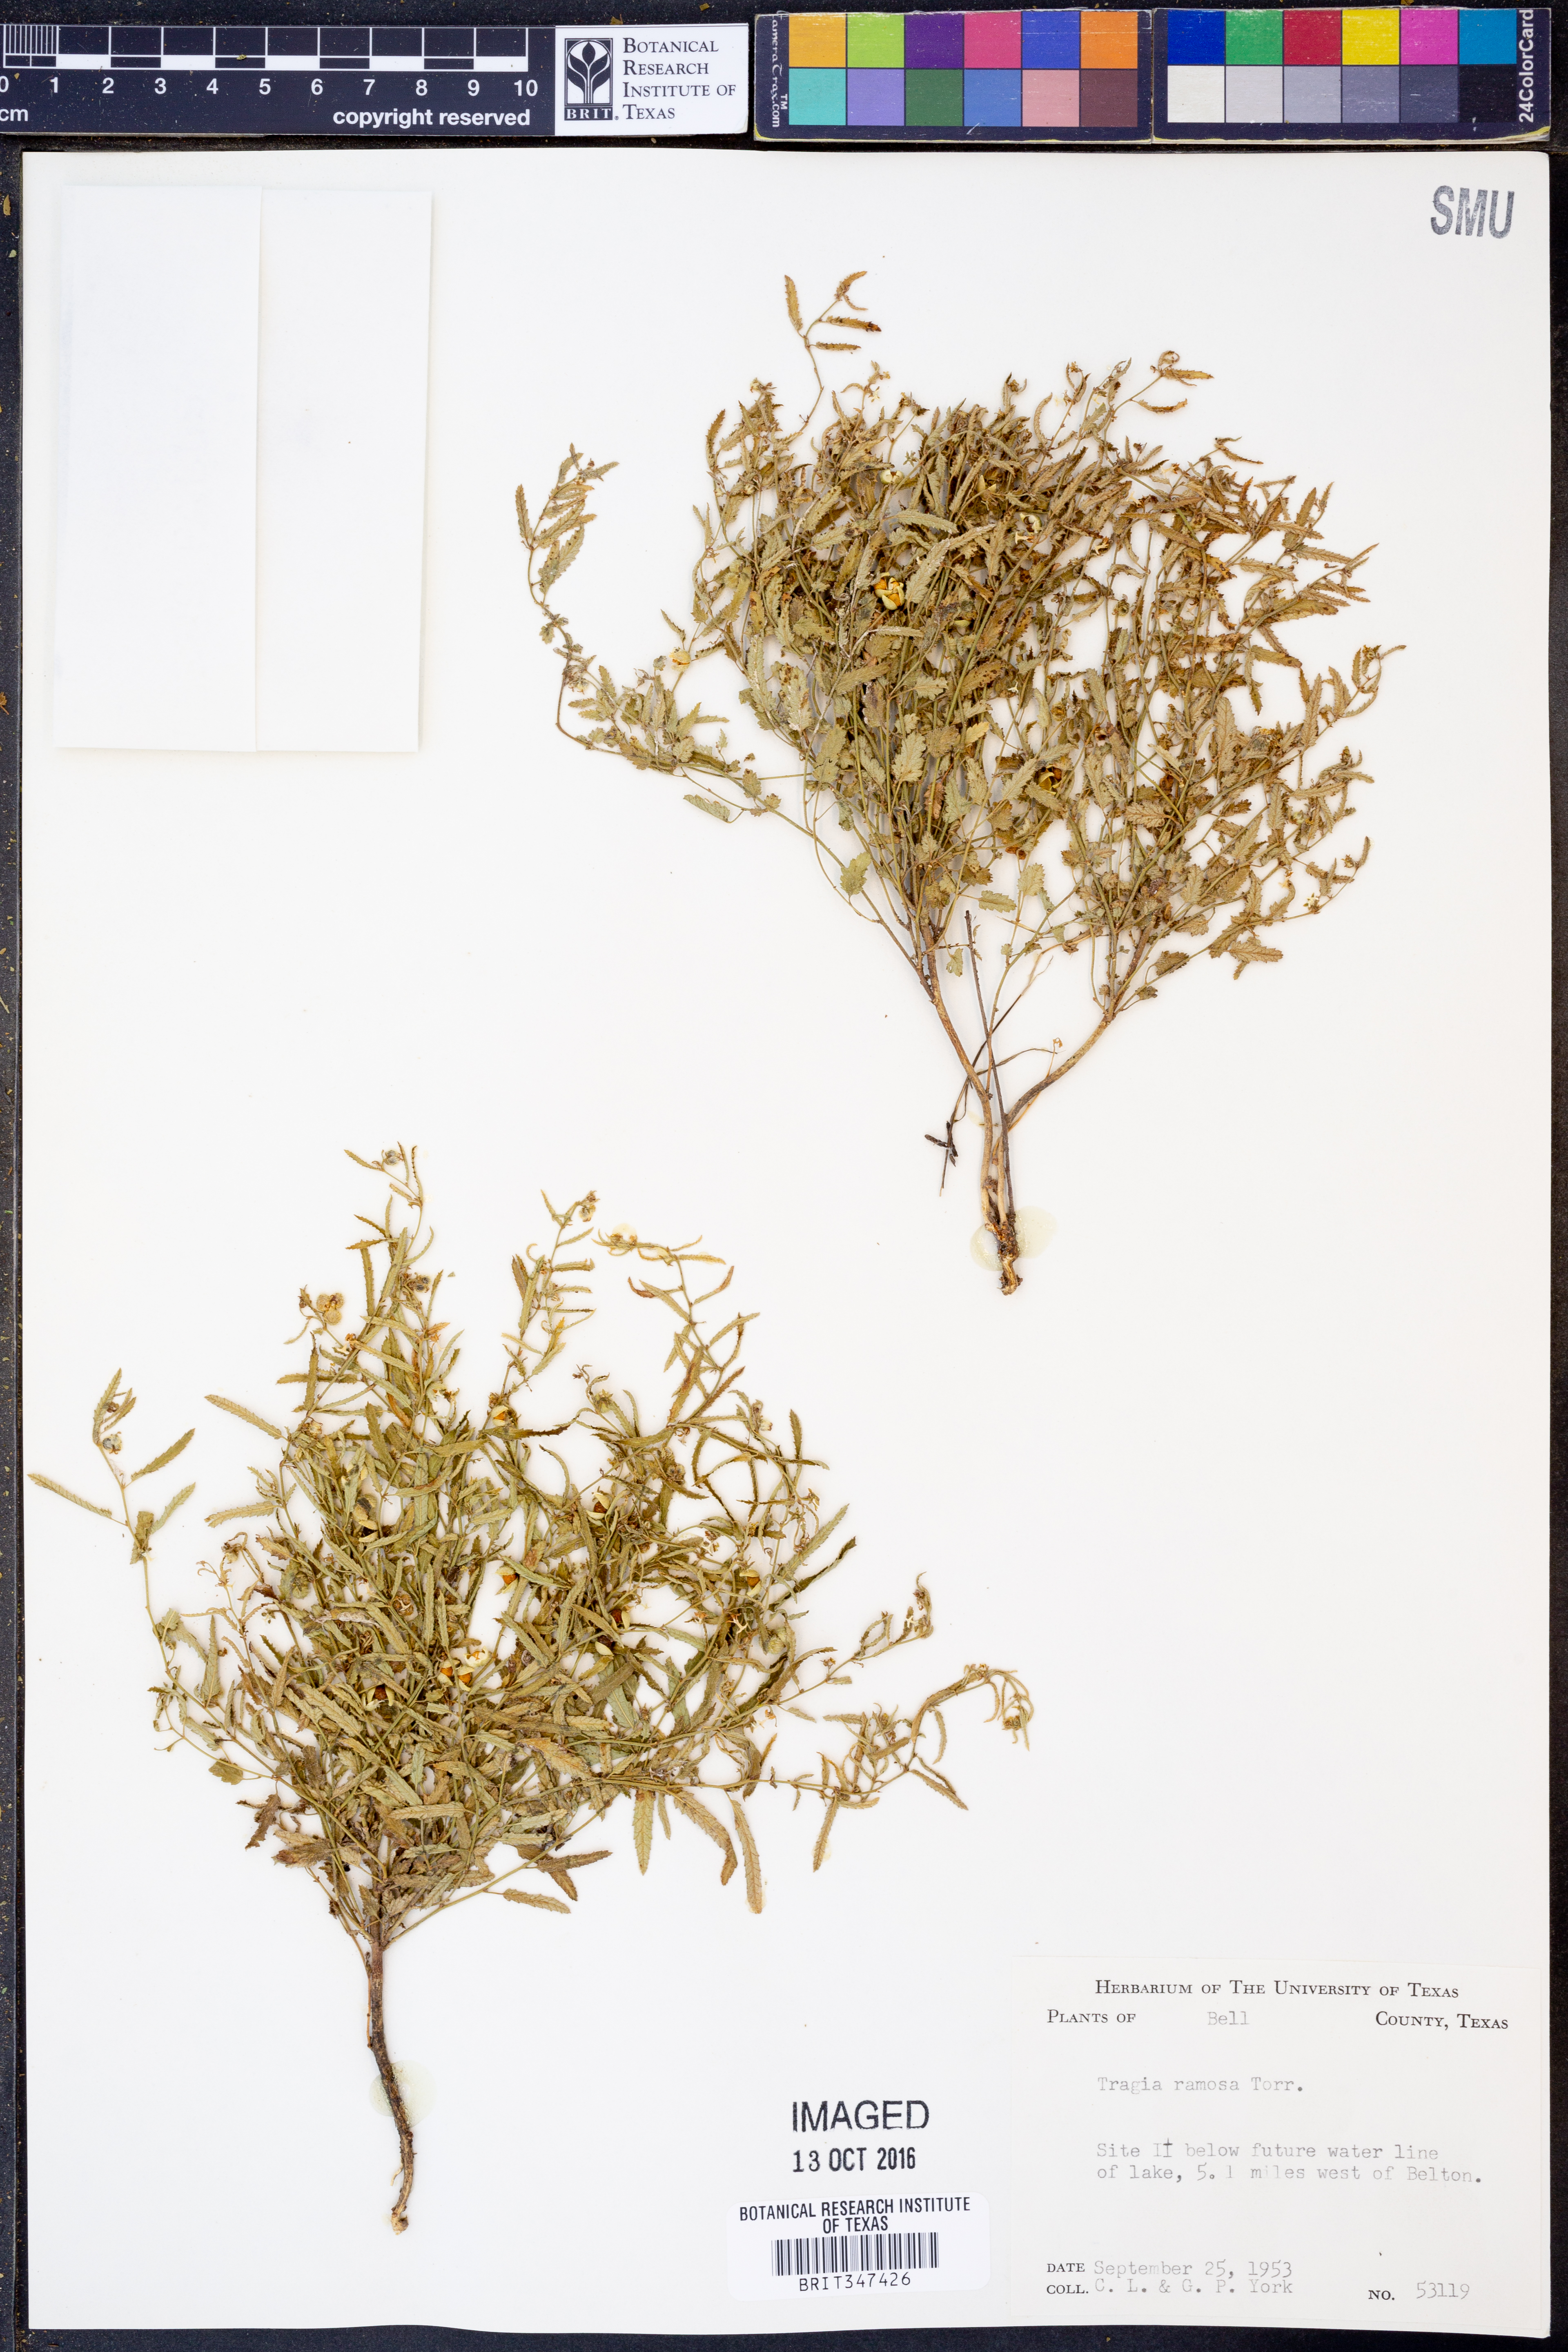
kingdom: Plantae
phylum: Tracheophyta
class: Magnoliopsida
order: Malpighiales
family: Euphorbiaceae
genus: Tragia
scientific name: Tragia ramosa
